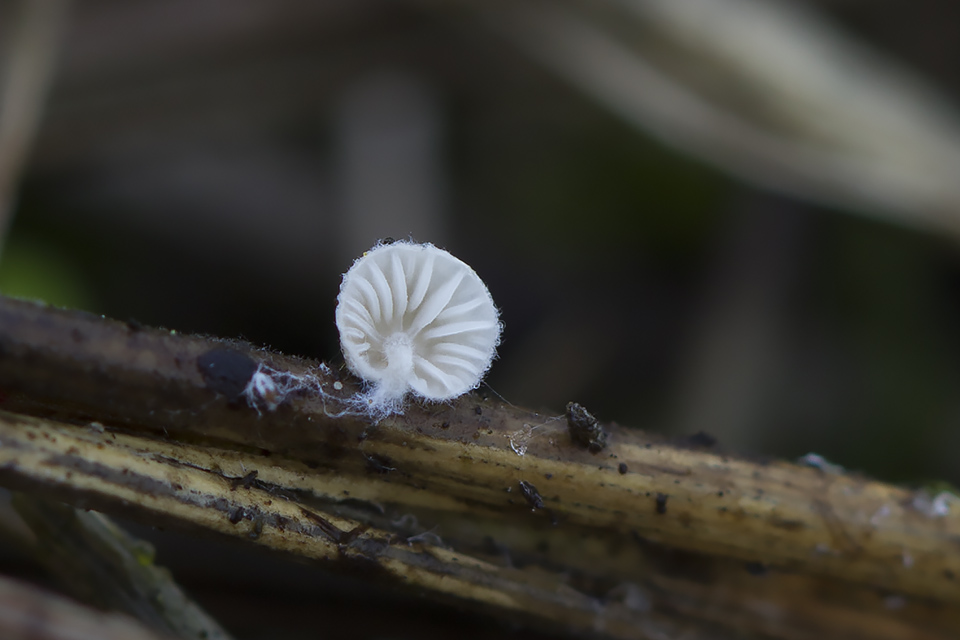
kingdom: Fungi
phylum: Basidiomycota
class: Agaricomycetes
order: Agaricales
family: Entolomataceae
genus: Clitopilus
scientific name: Clitopilus hobsonii
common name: Miller's oysterling
